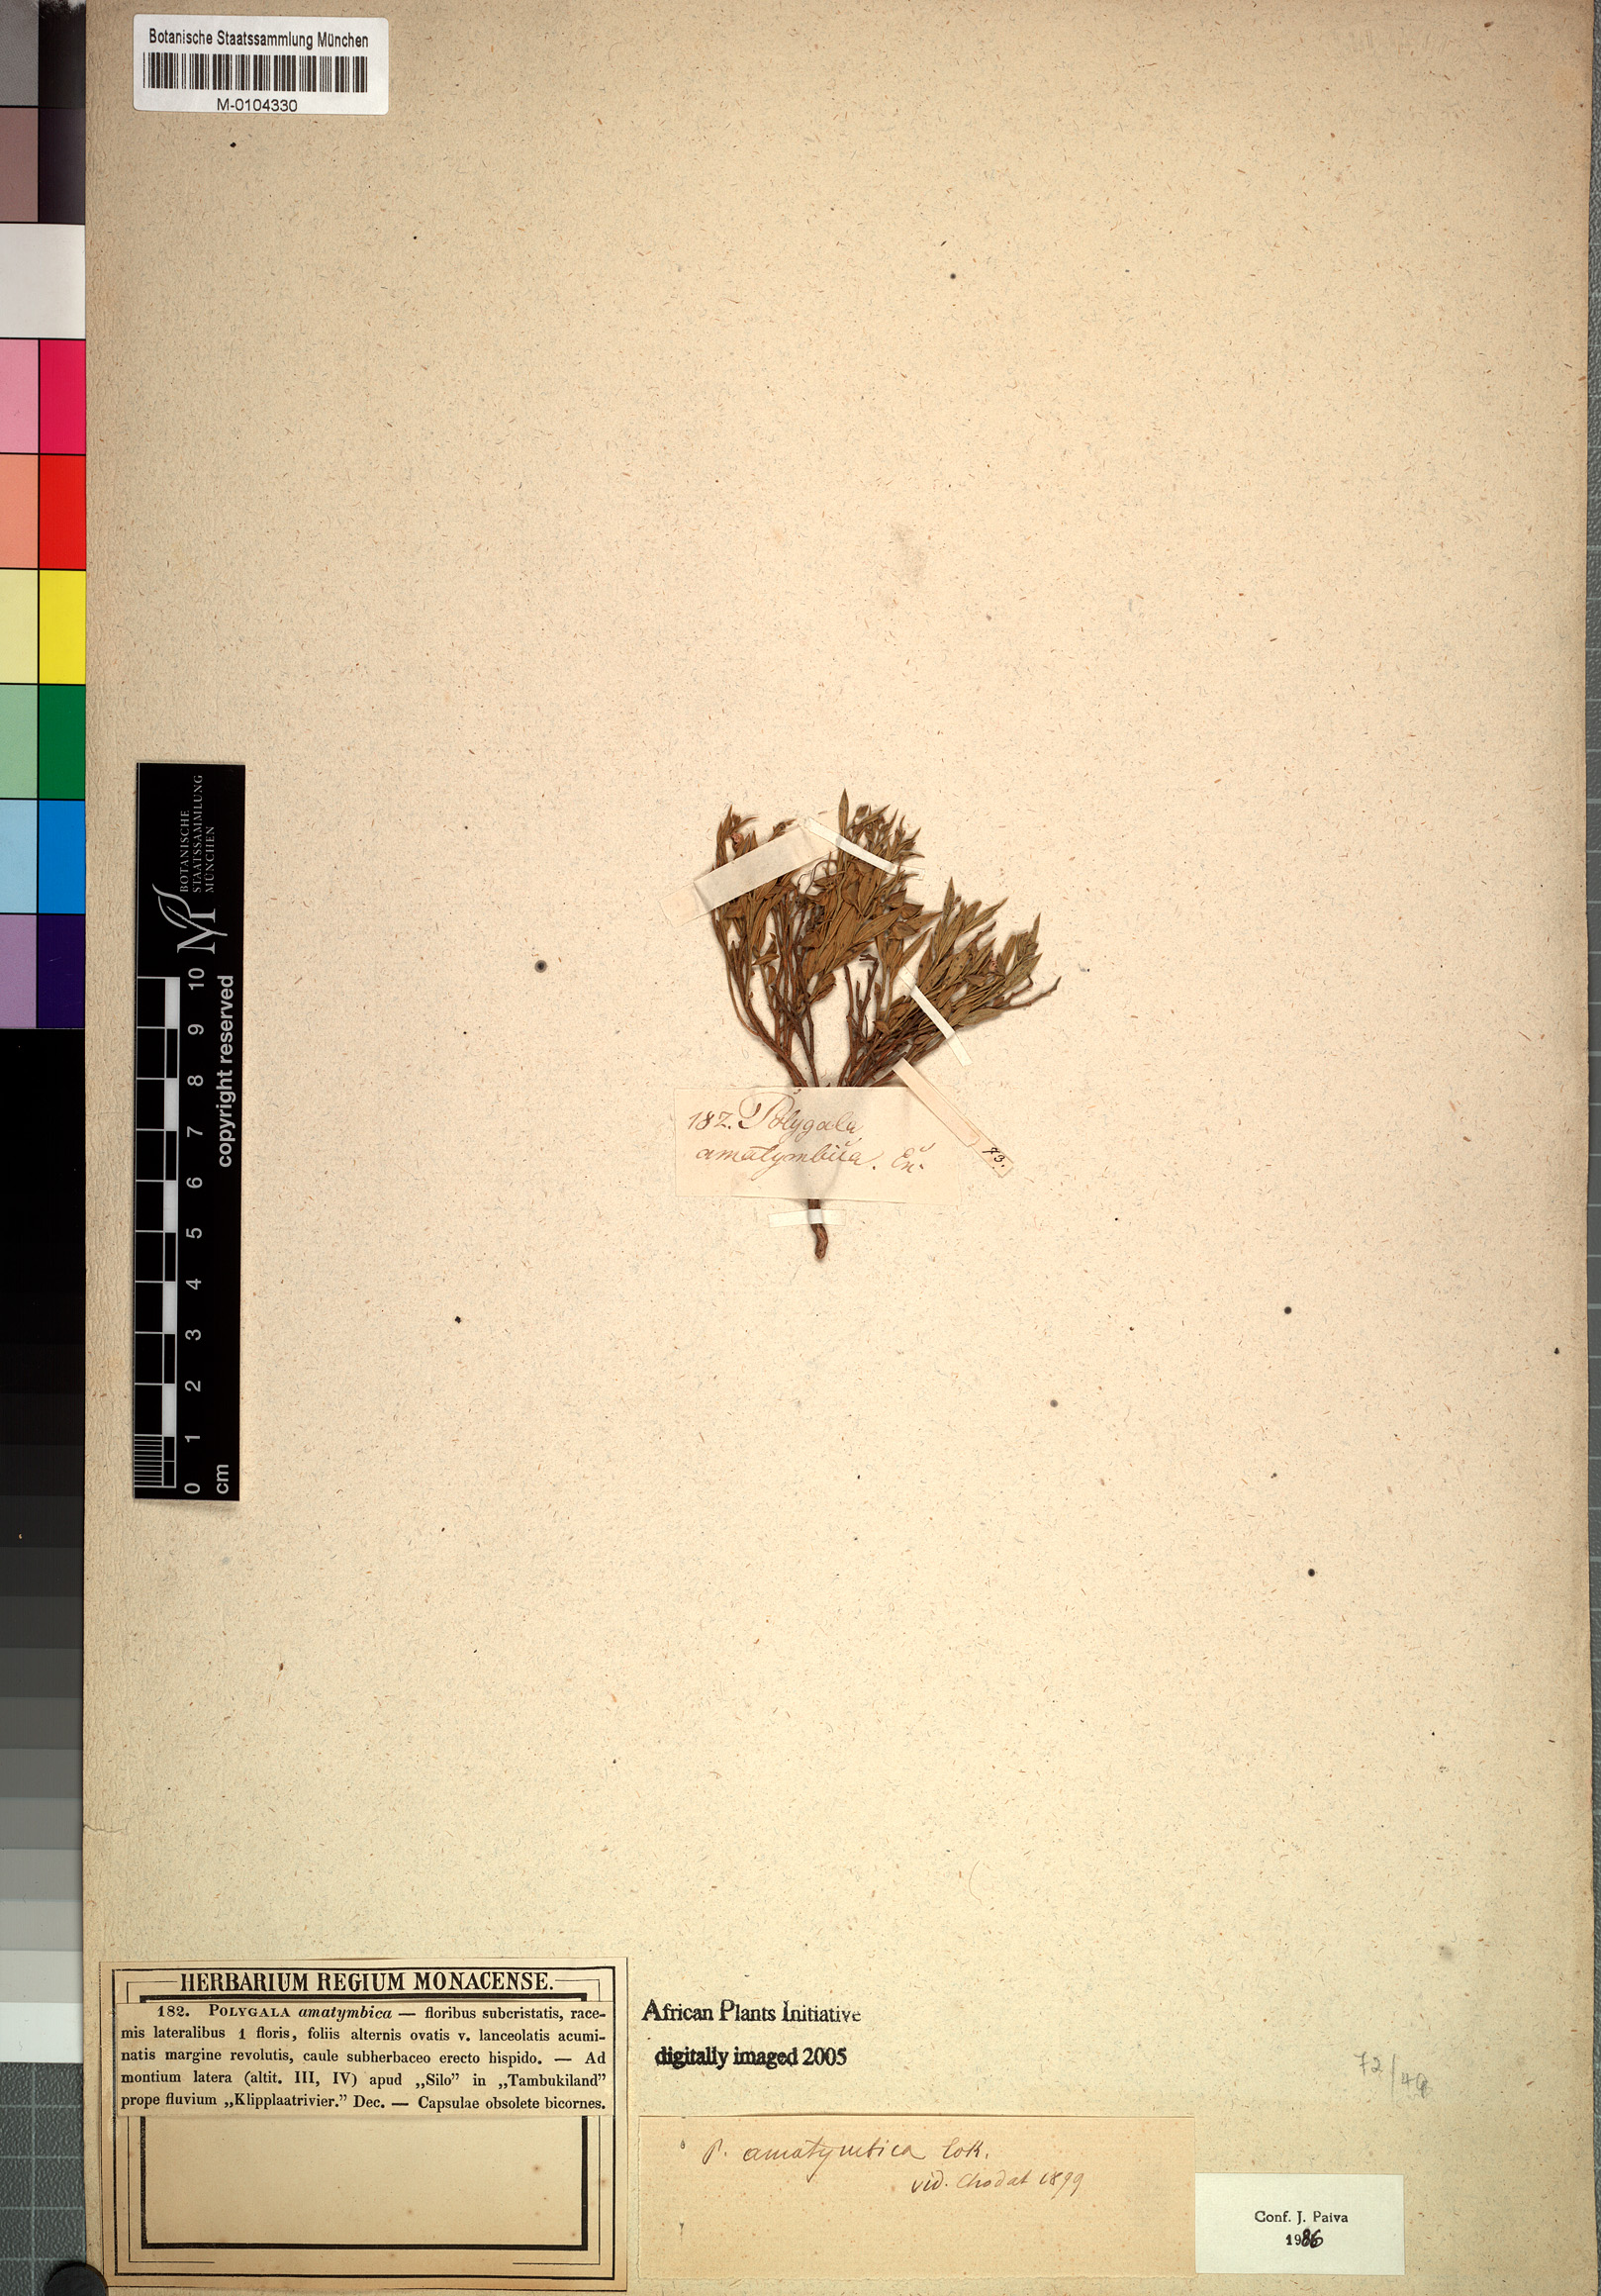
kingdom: Plantae
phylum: Tracheophyta
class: Magnoliopsida
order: Fabales
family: Polygalaceae
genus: Polygala
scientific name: Polygala amatymbica
